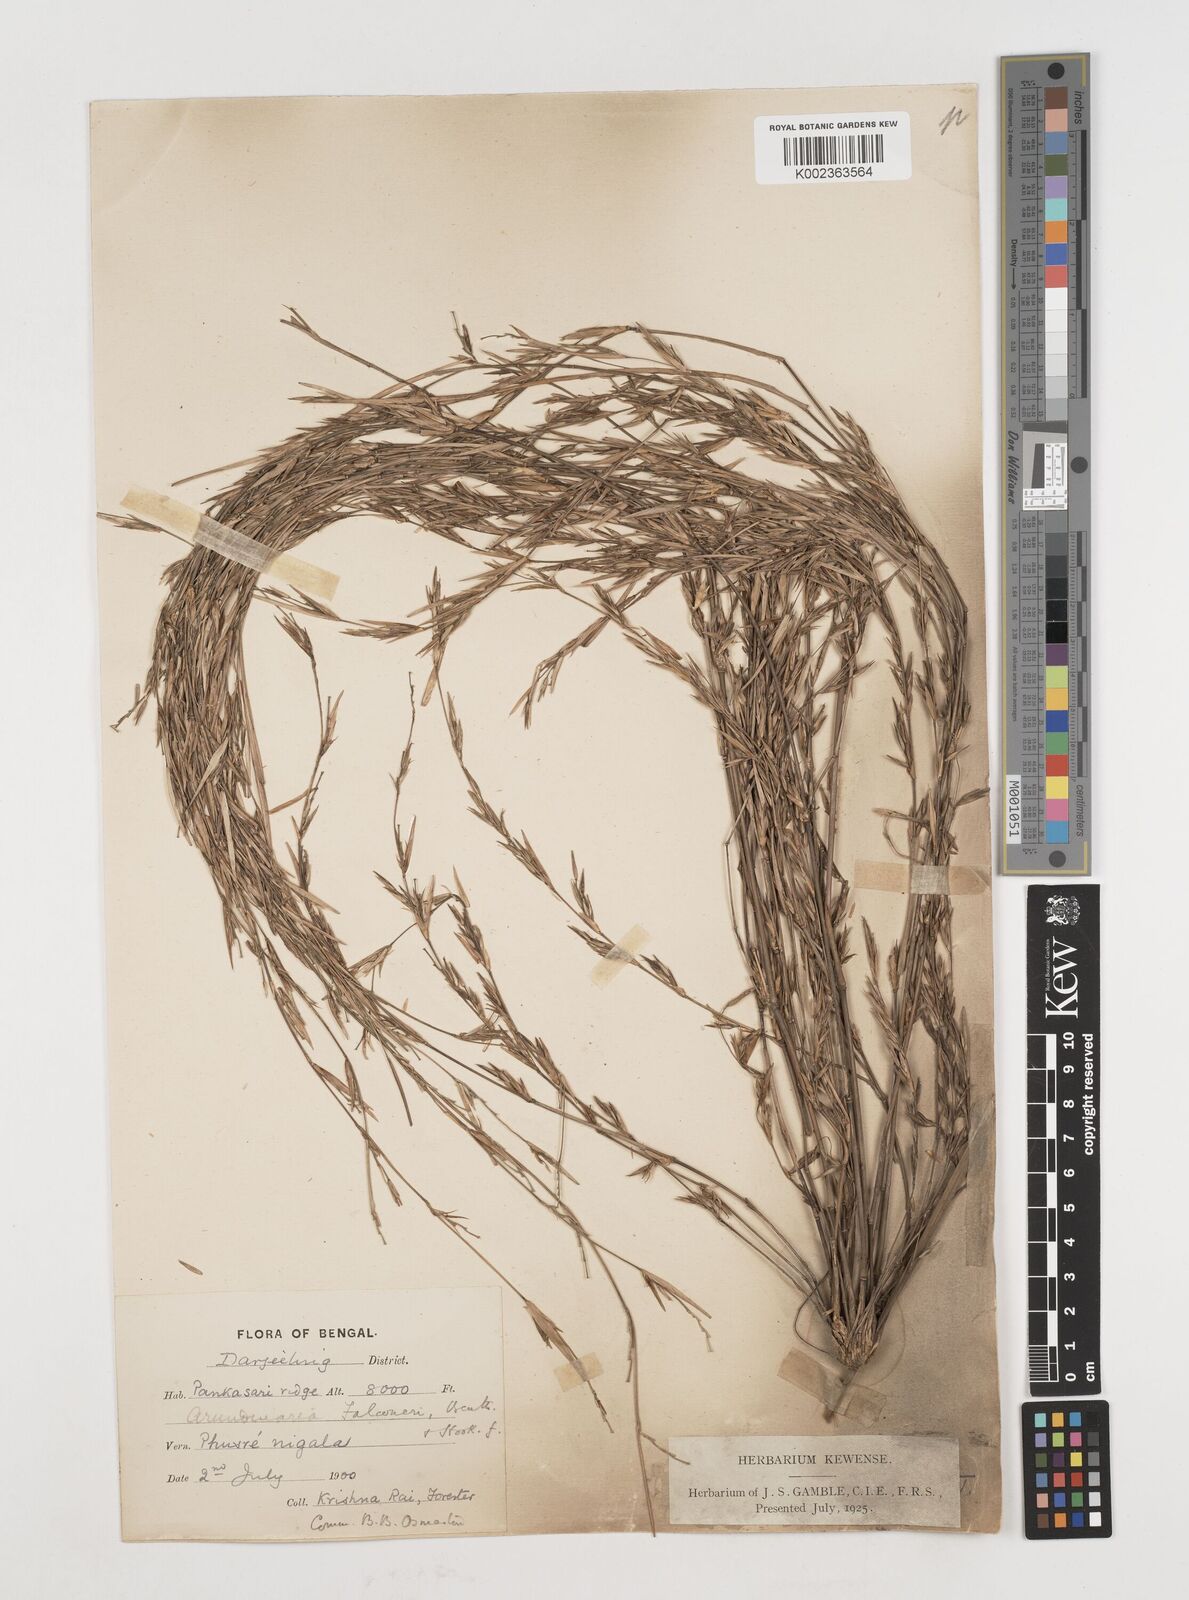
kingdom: Plantae
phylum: Tracheophyta
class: Liliopsida
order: Poales
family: Poaceae
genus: Himalayacalamus
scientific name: Himalayacalamus falconeri
